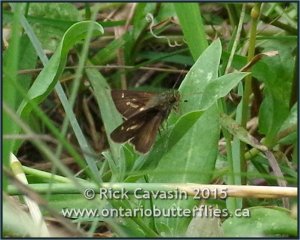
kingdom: Animalia
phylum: Arthropoda
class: Insecta
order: Lepidoptera
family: Hesperiidae
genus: Vernia
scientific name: Vernia verna
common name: Little Glassywing
